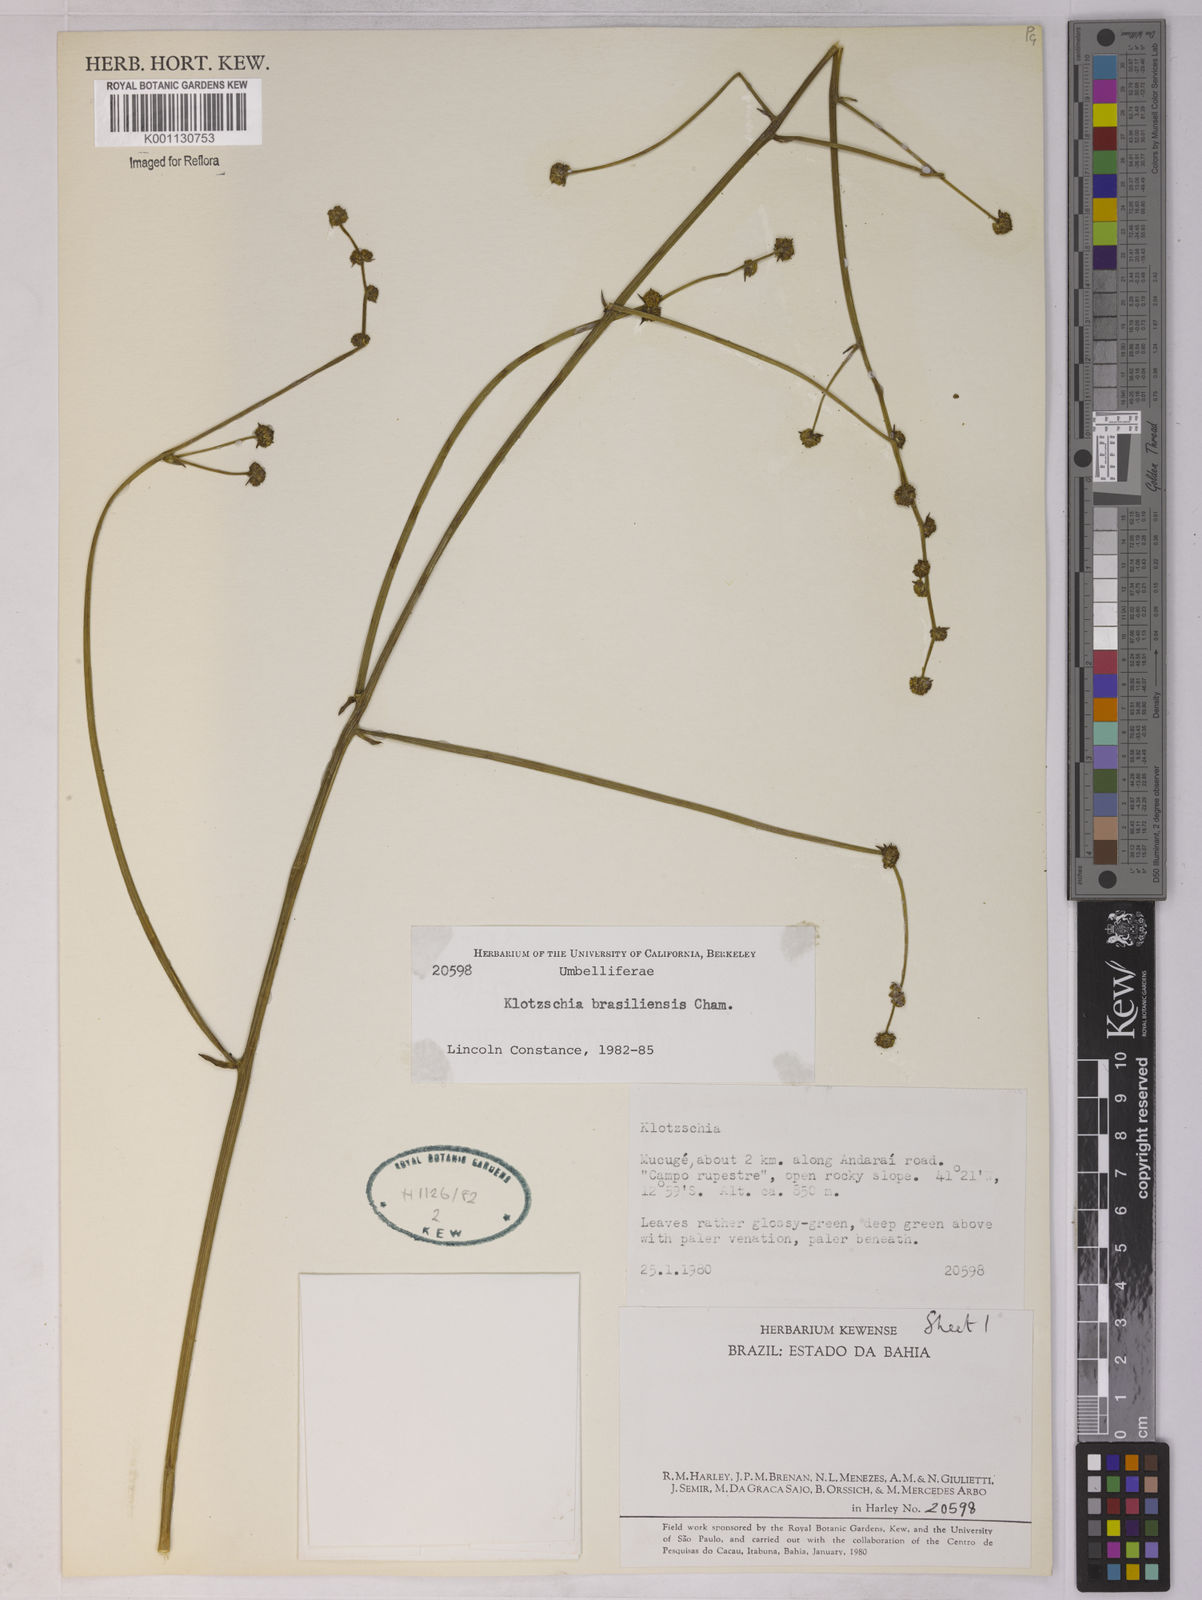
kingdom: Plantae
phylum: Tracheophyta
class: Magnoliopsida
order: Apiales
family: Apiaceae
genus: Klotzschia
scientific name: Klotzschia brasiliensis
